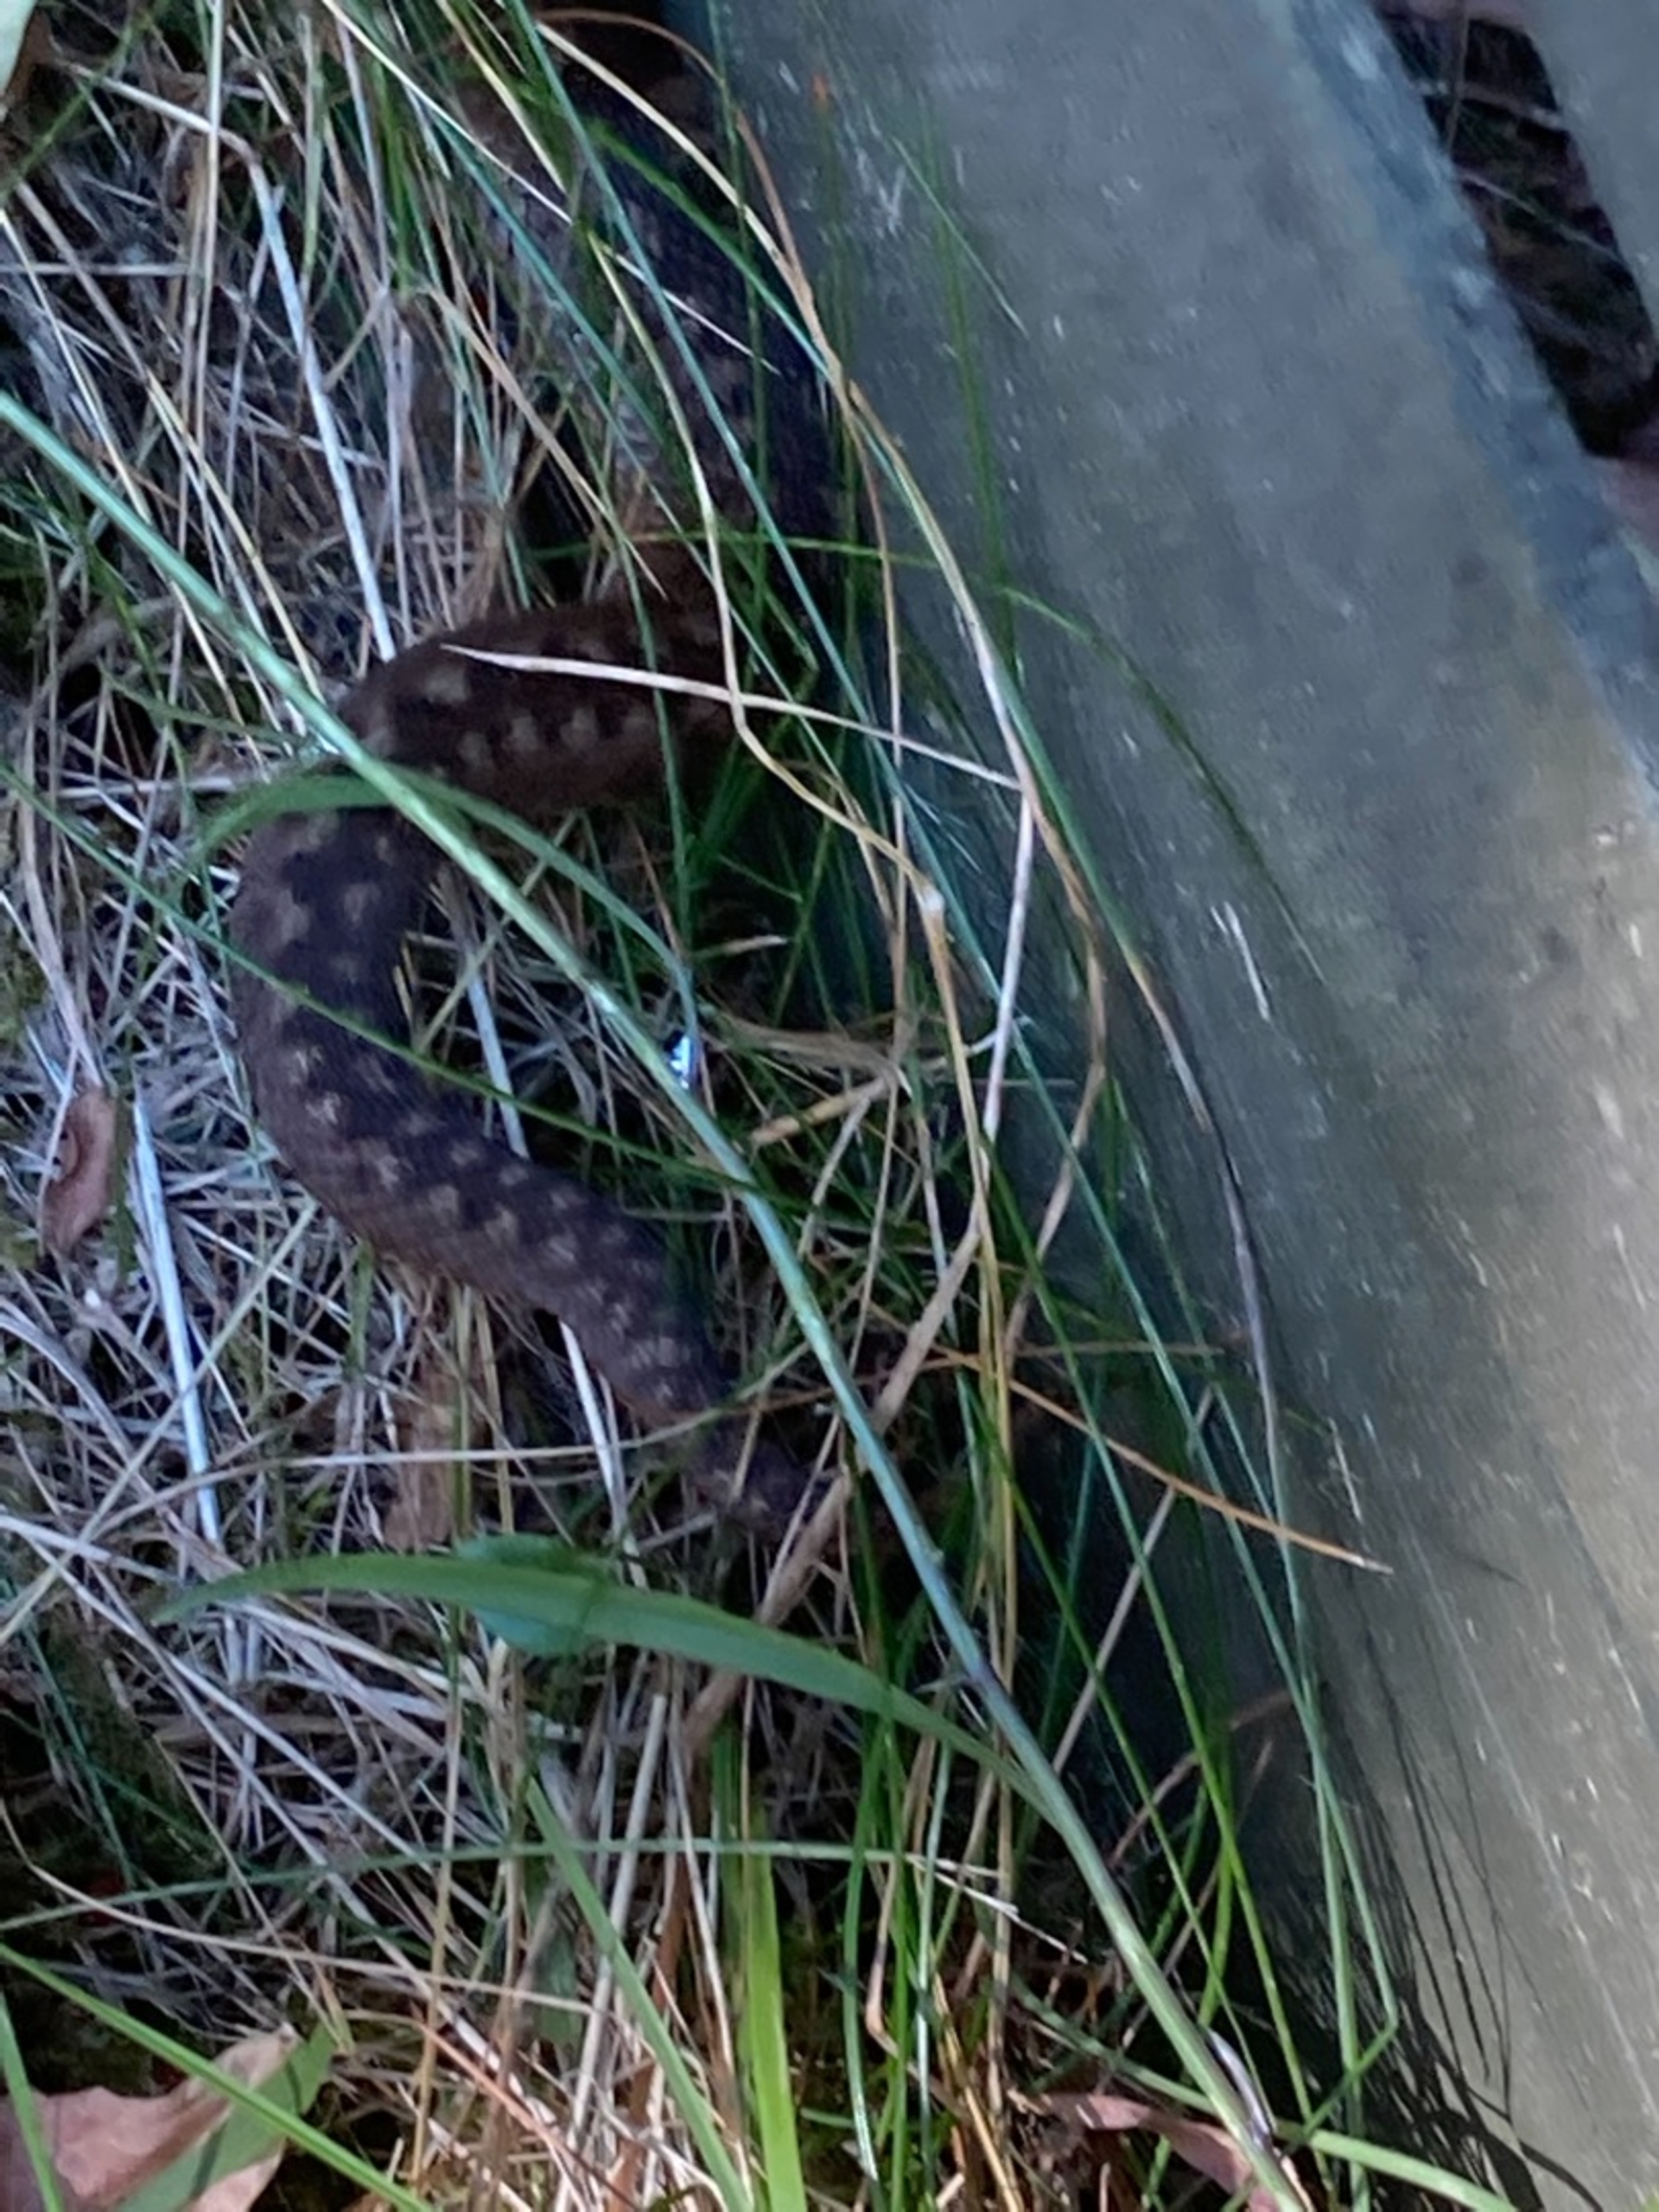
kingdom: Animalia
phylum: Chordata
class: Squamata
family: Viperidae
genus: Vipera
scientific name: Vipera berus
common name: Hugorm
